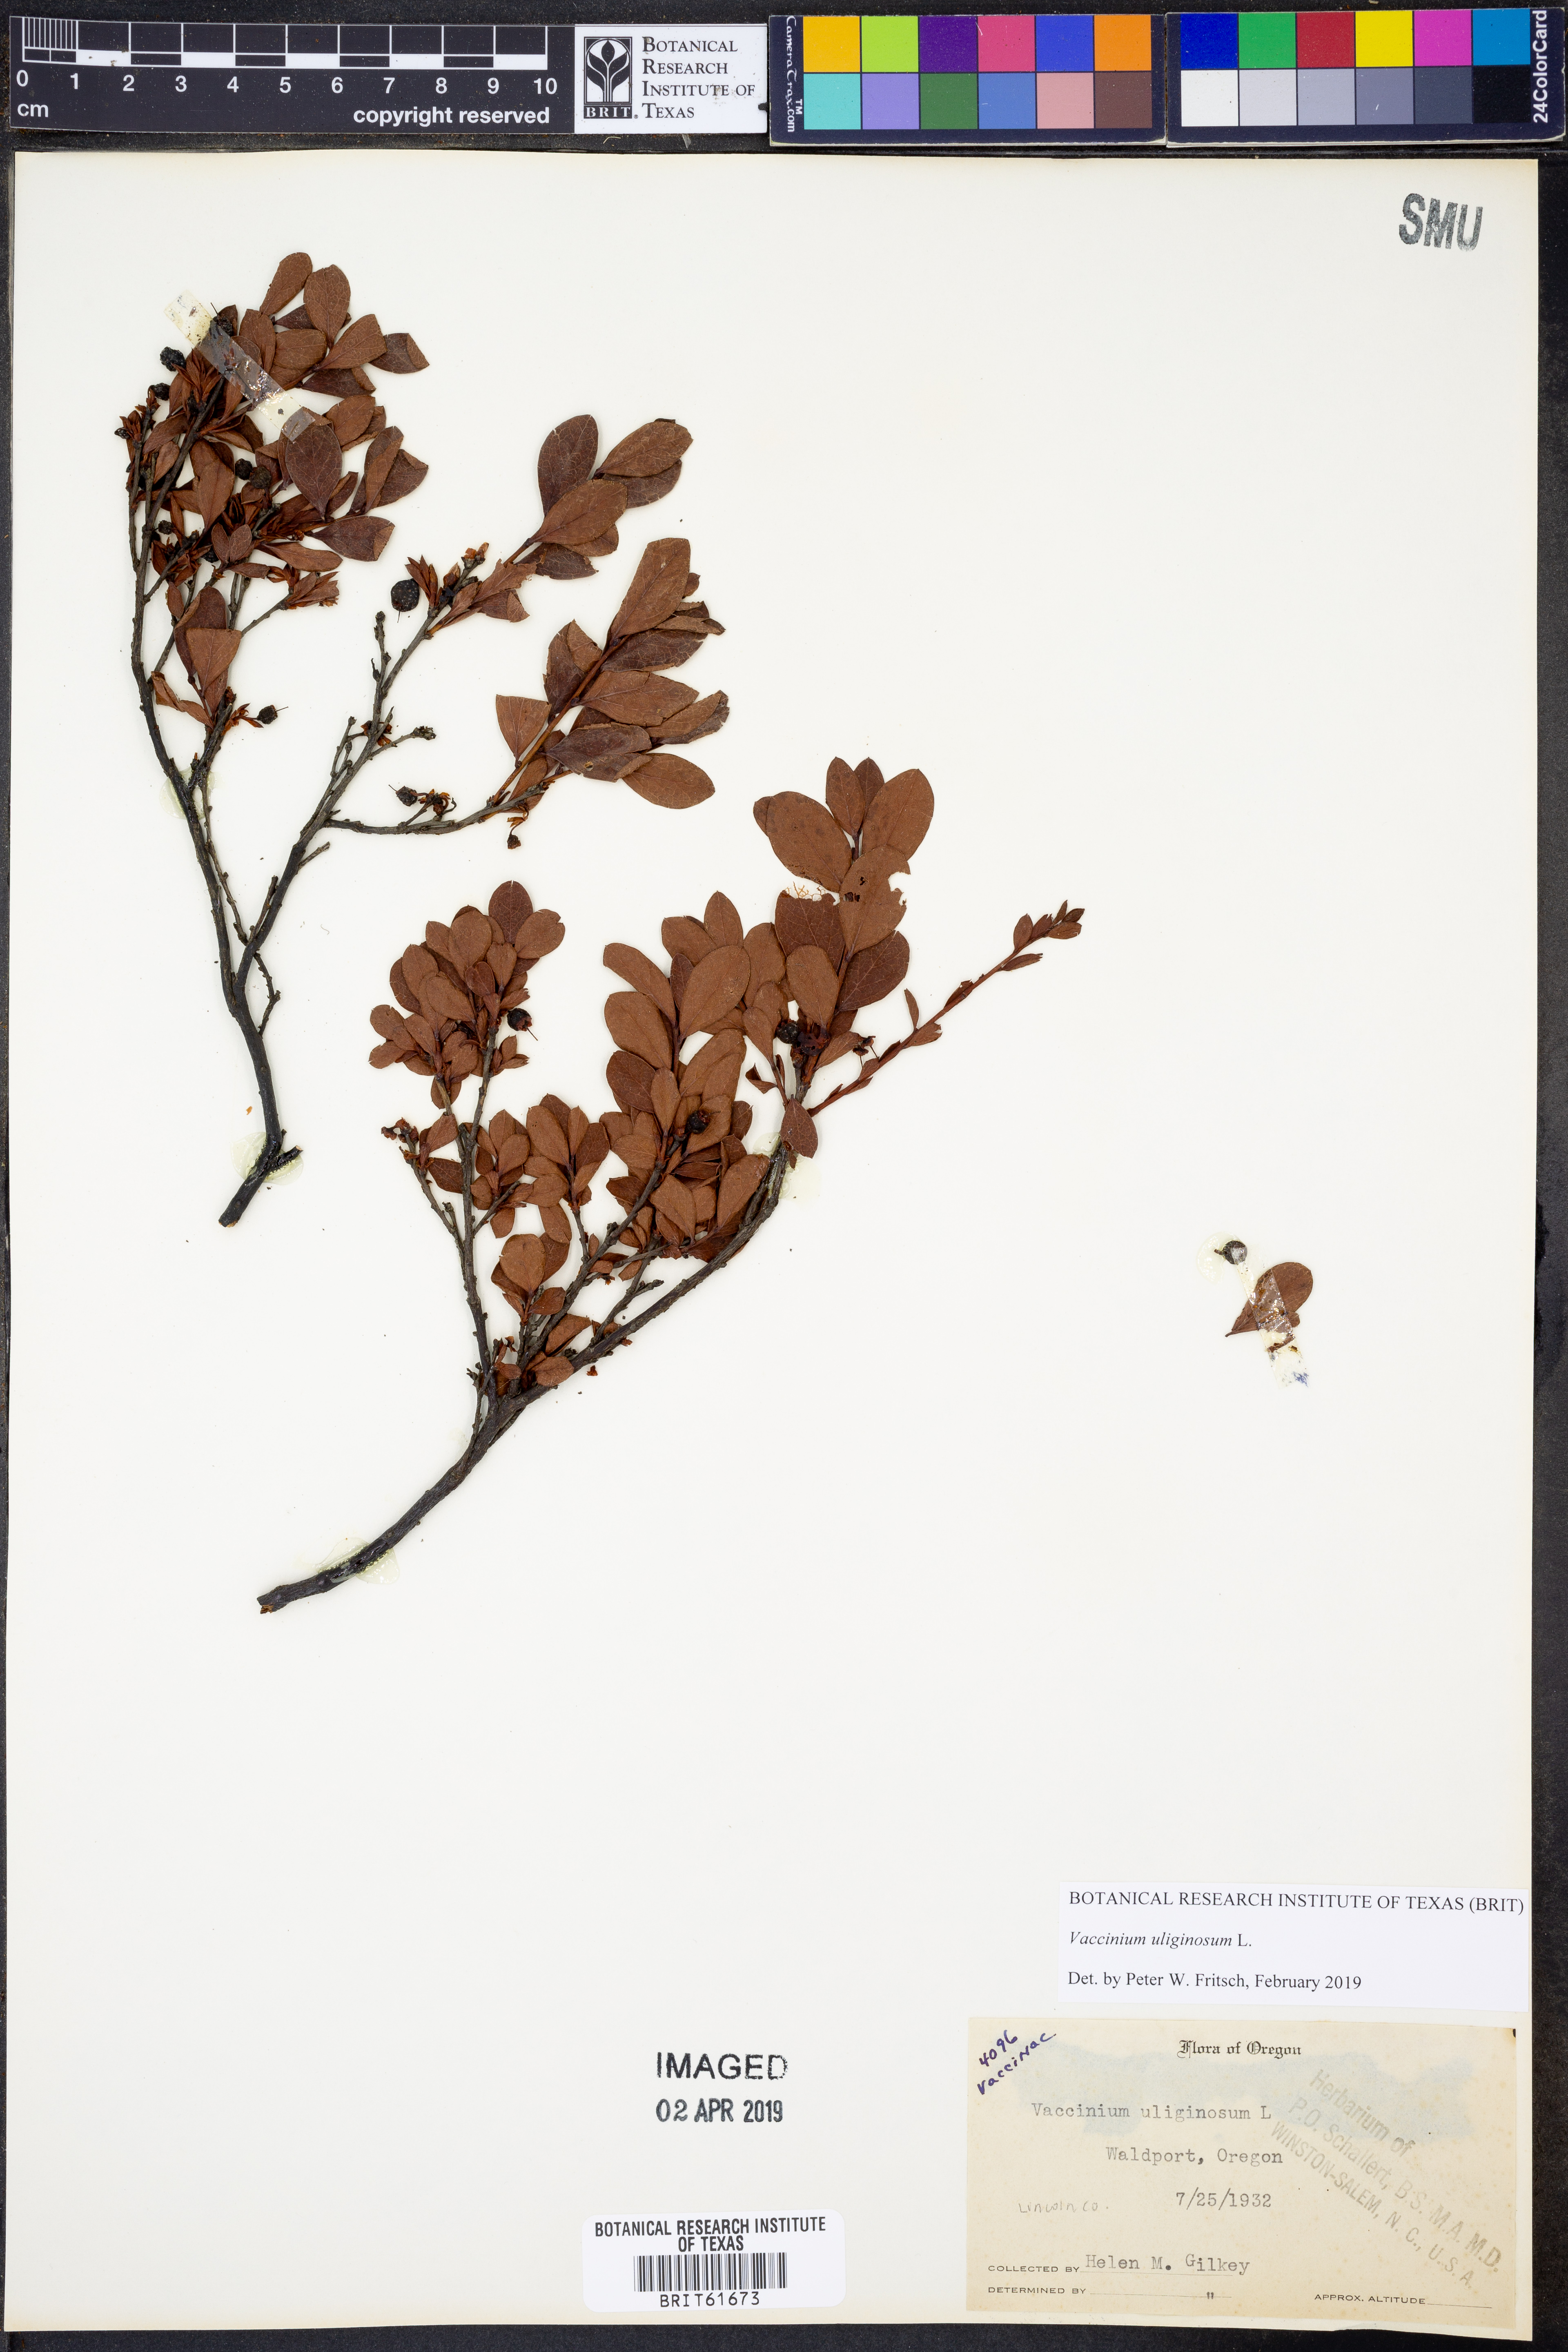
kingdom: Plantae
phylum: Tracheophyta
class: Magnoliopsida
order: Ericales
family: Ericaceae
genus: Vaccinium
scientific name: Vaccinium uliginosum
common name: Bog bilberry
